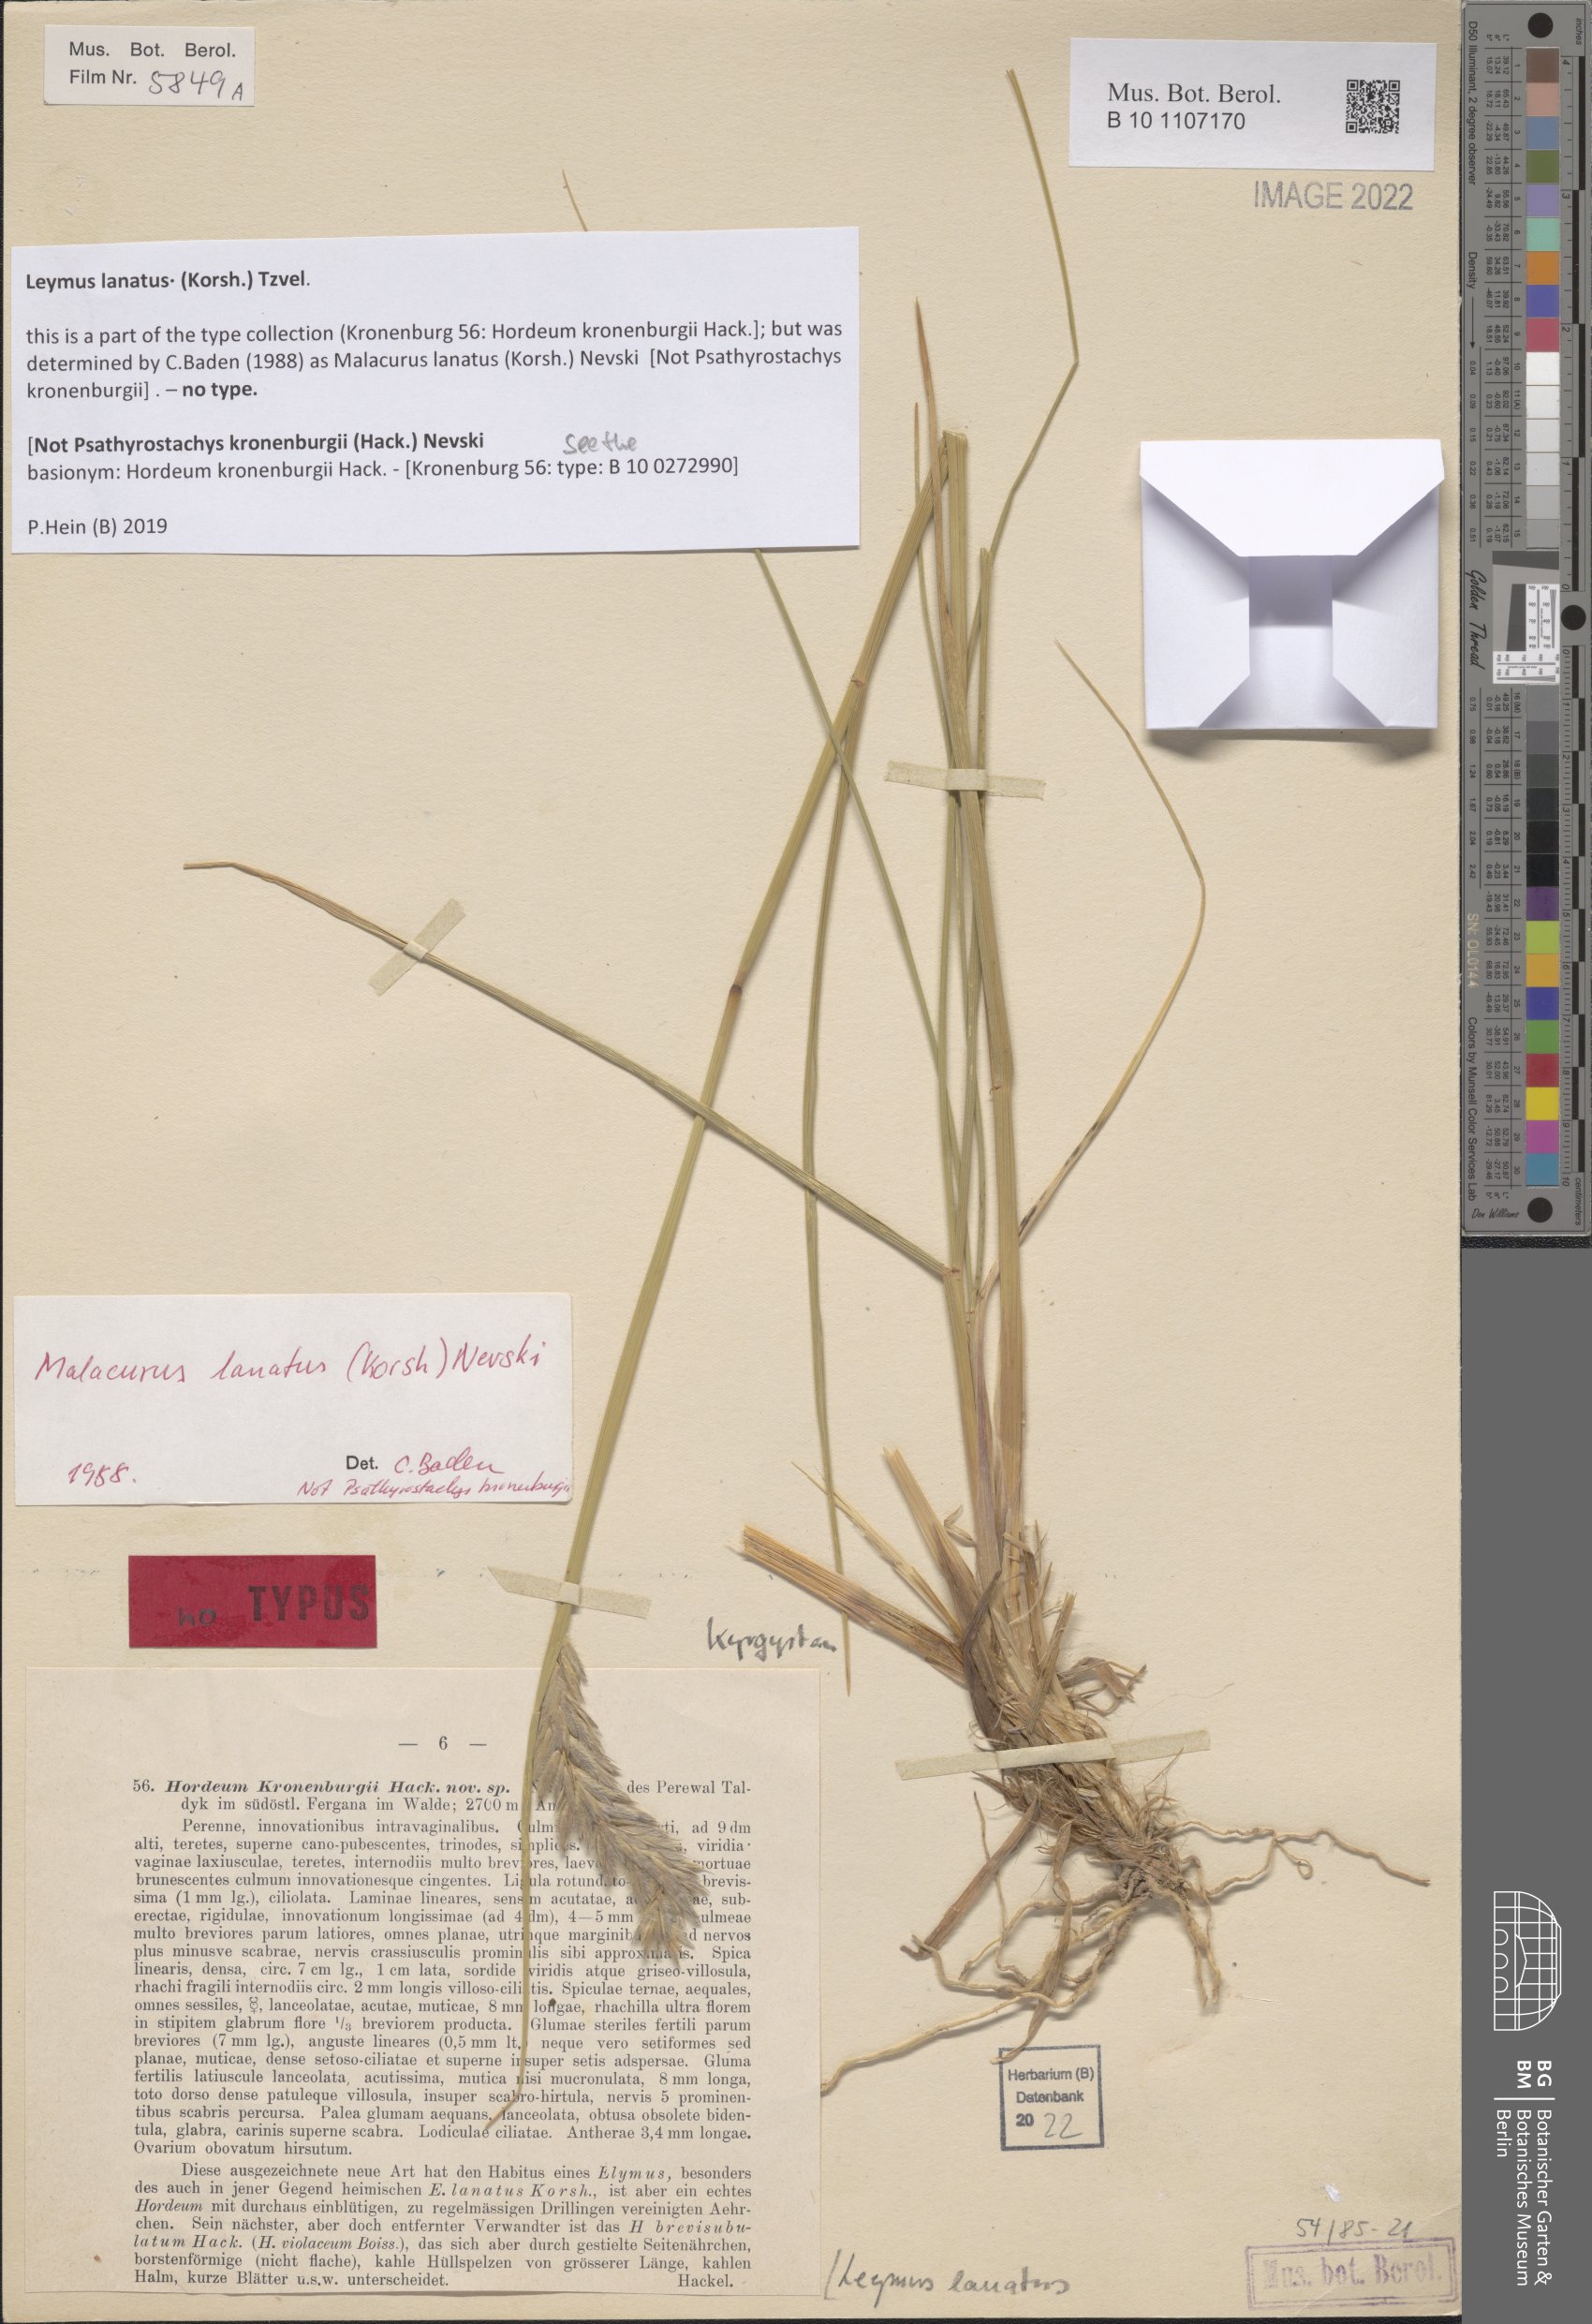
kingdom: Plantae
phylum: Tracheophyta
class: Liliopsida
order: Poales
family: Poaceae
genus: Leymus
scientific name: Leymus lanatus
